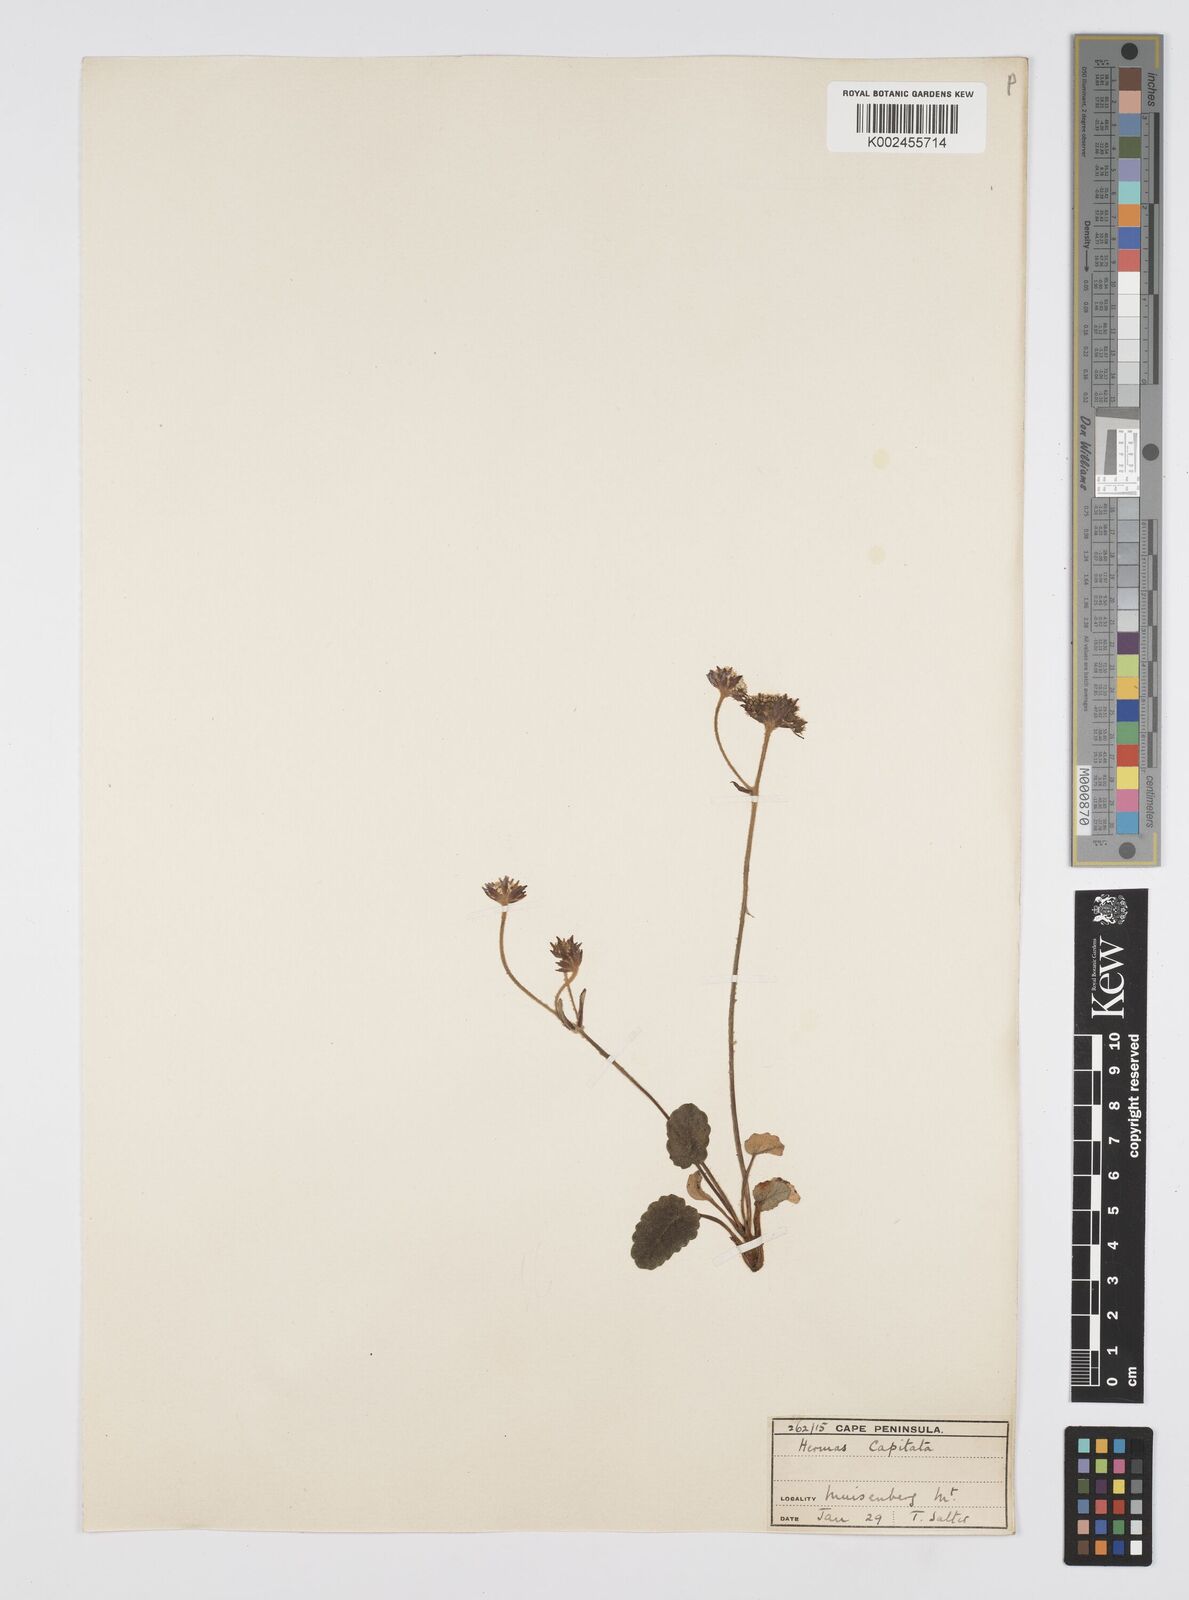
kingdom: Plantae
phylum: Tracheophyta
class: Magnoliopsida
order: Apiales
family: Apiaceae
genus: Hermas
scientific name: Hermas capitata
